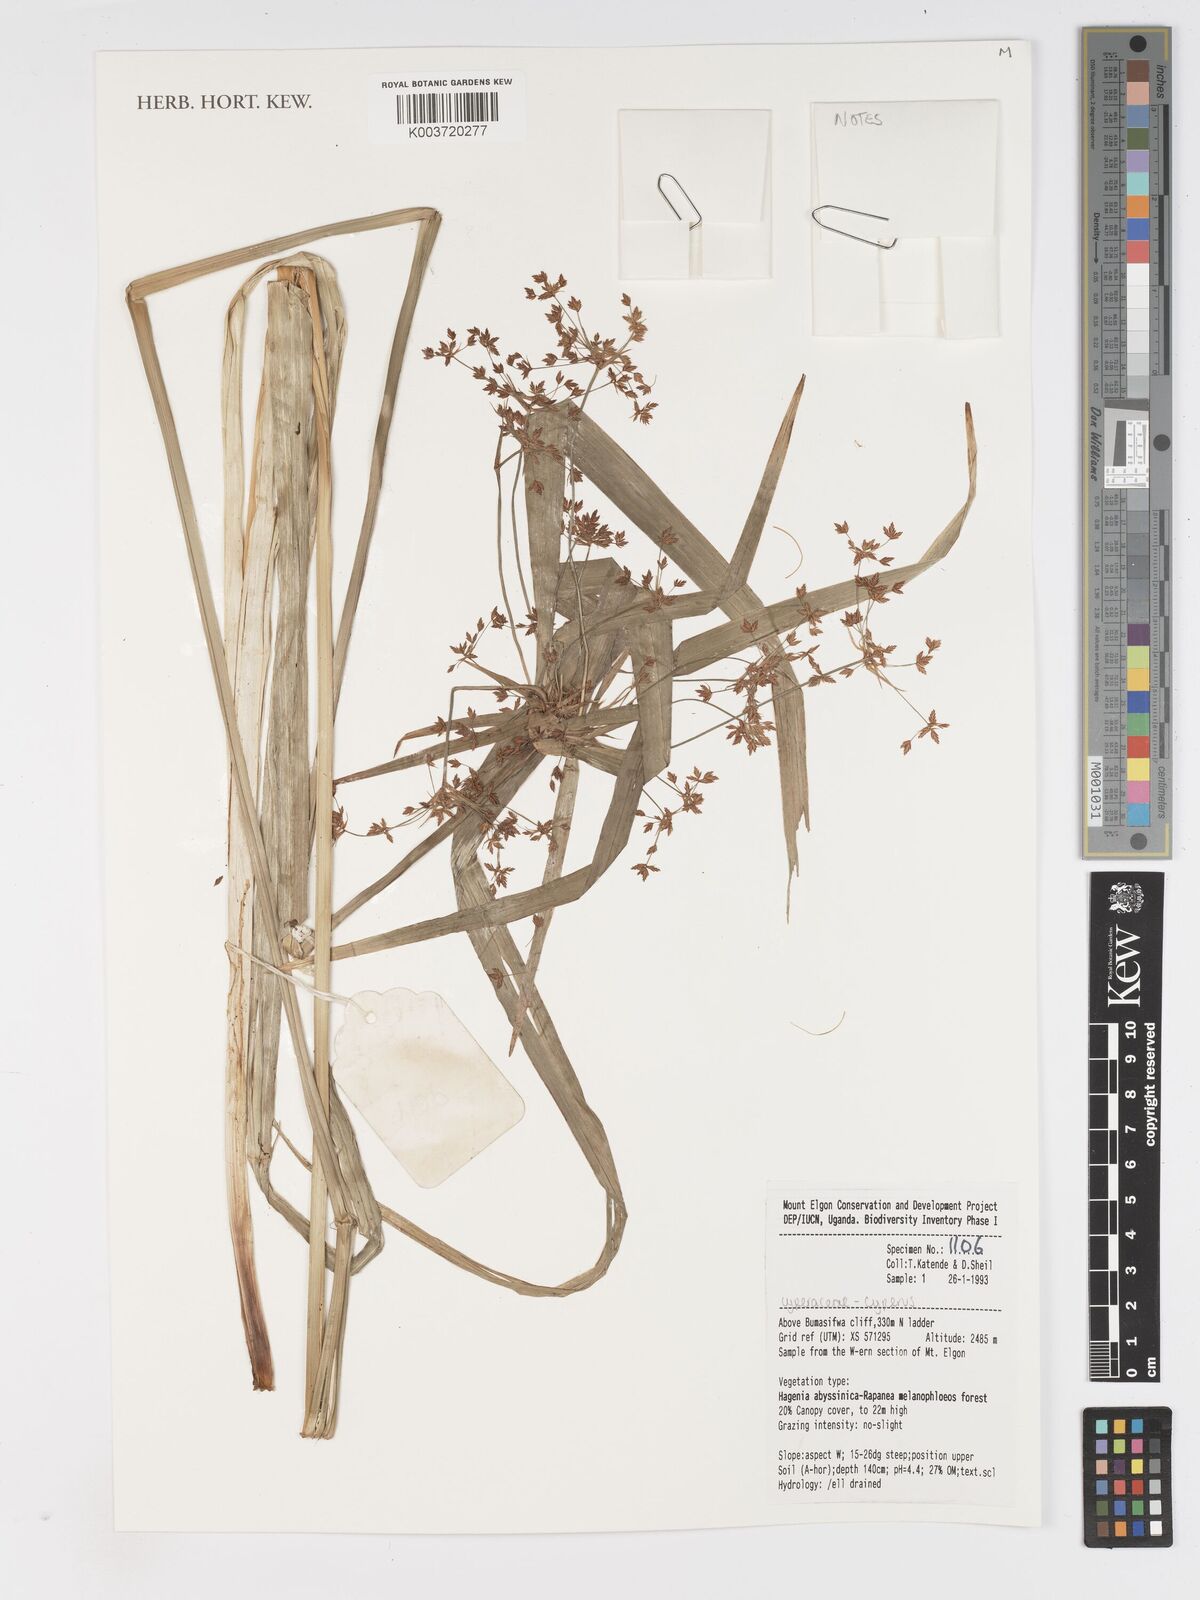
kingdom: Plantae
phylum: Tracheophyta
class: Liliopsida
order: Poales
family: Cyperaceae
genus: Cyperus
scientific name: Cyperus
